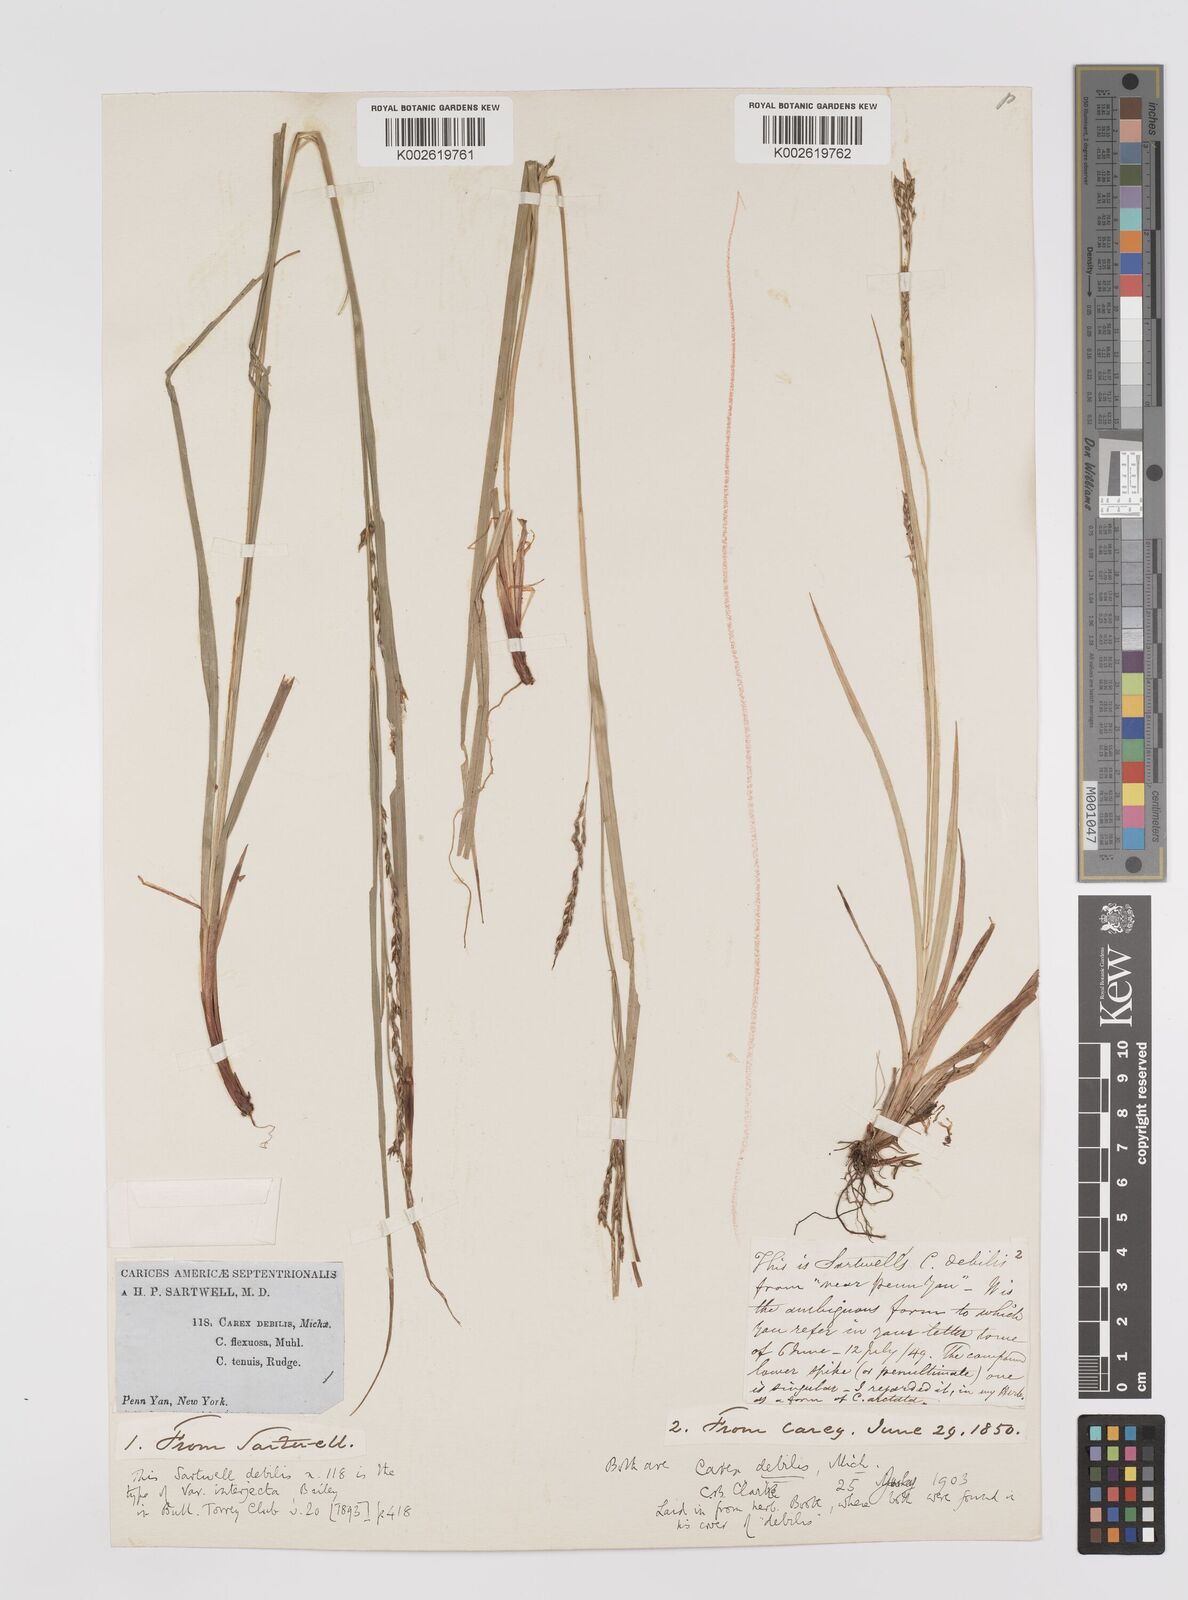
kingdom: Plantae
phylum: Tracheophyta
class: Liliopsida
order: Poales
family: Cyperaceae
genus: Carex
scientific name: Carex debilis
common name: White-edge sedge
